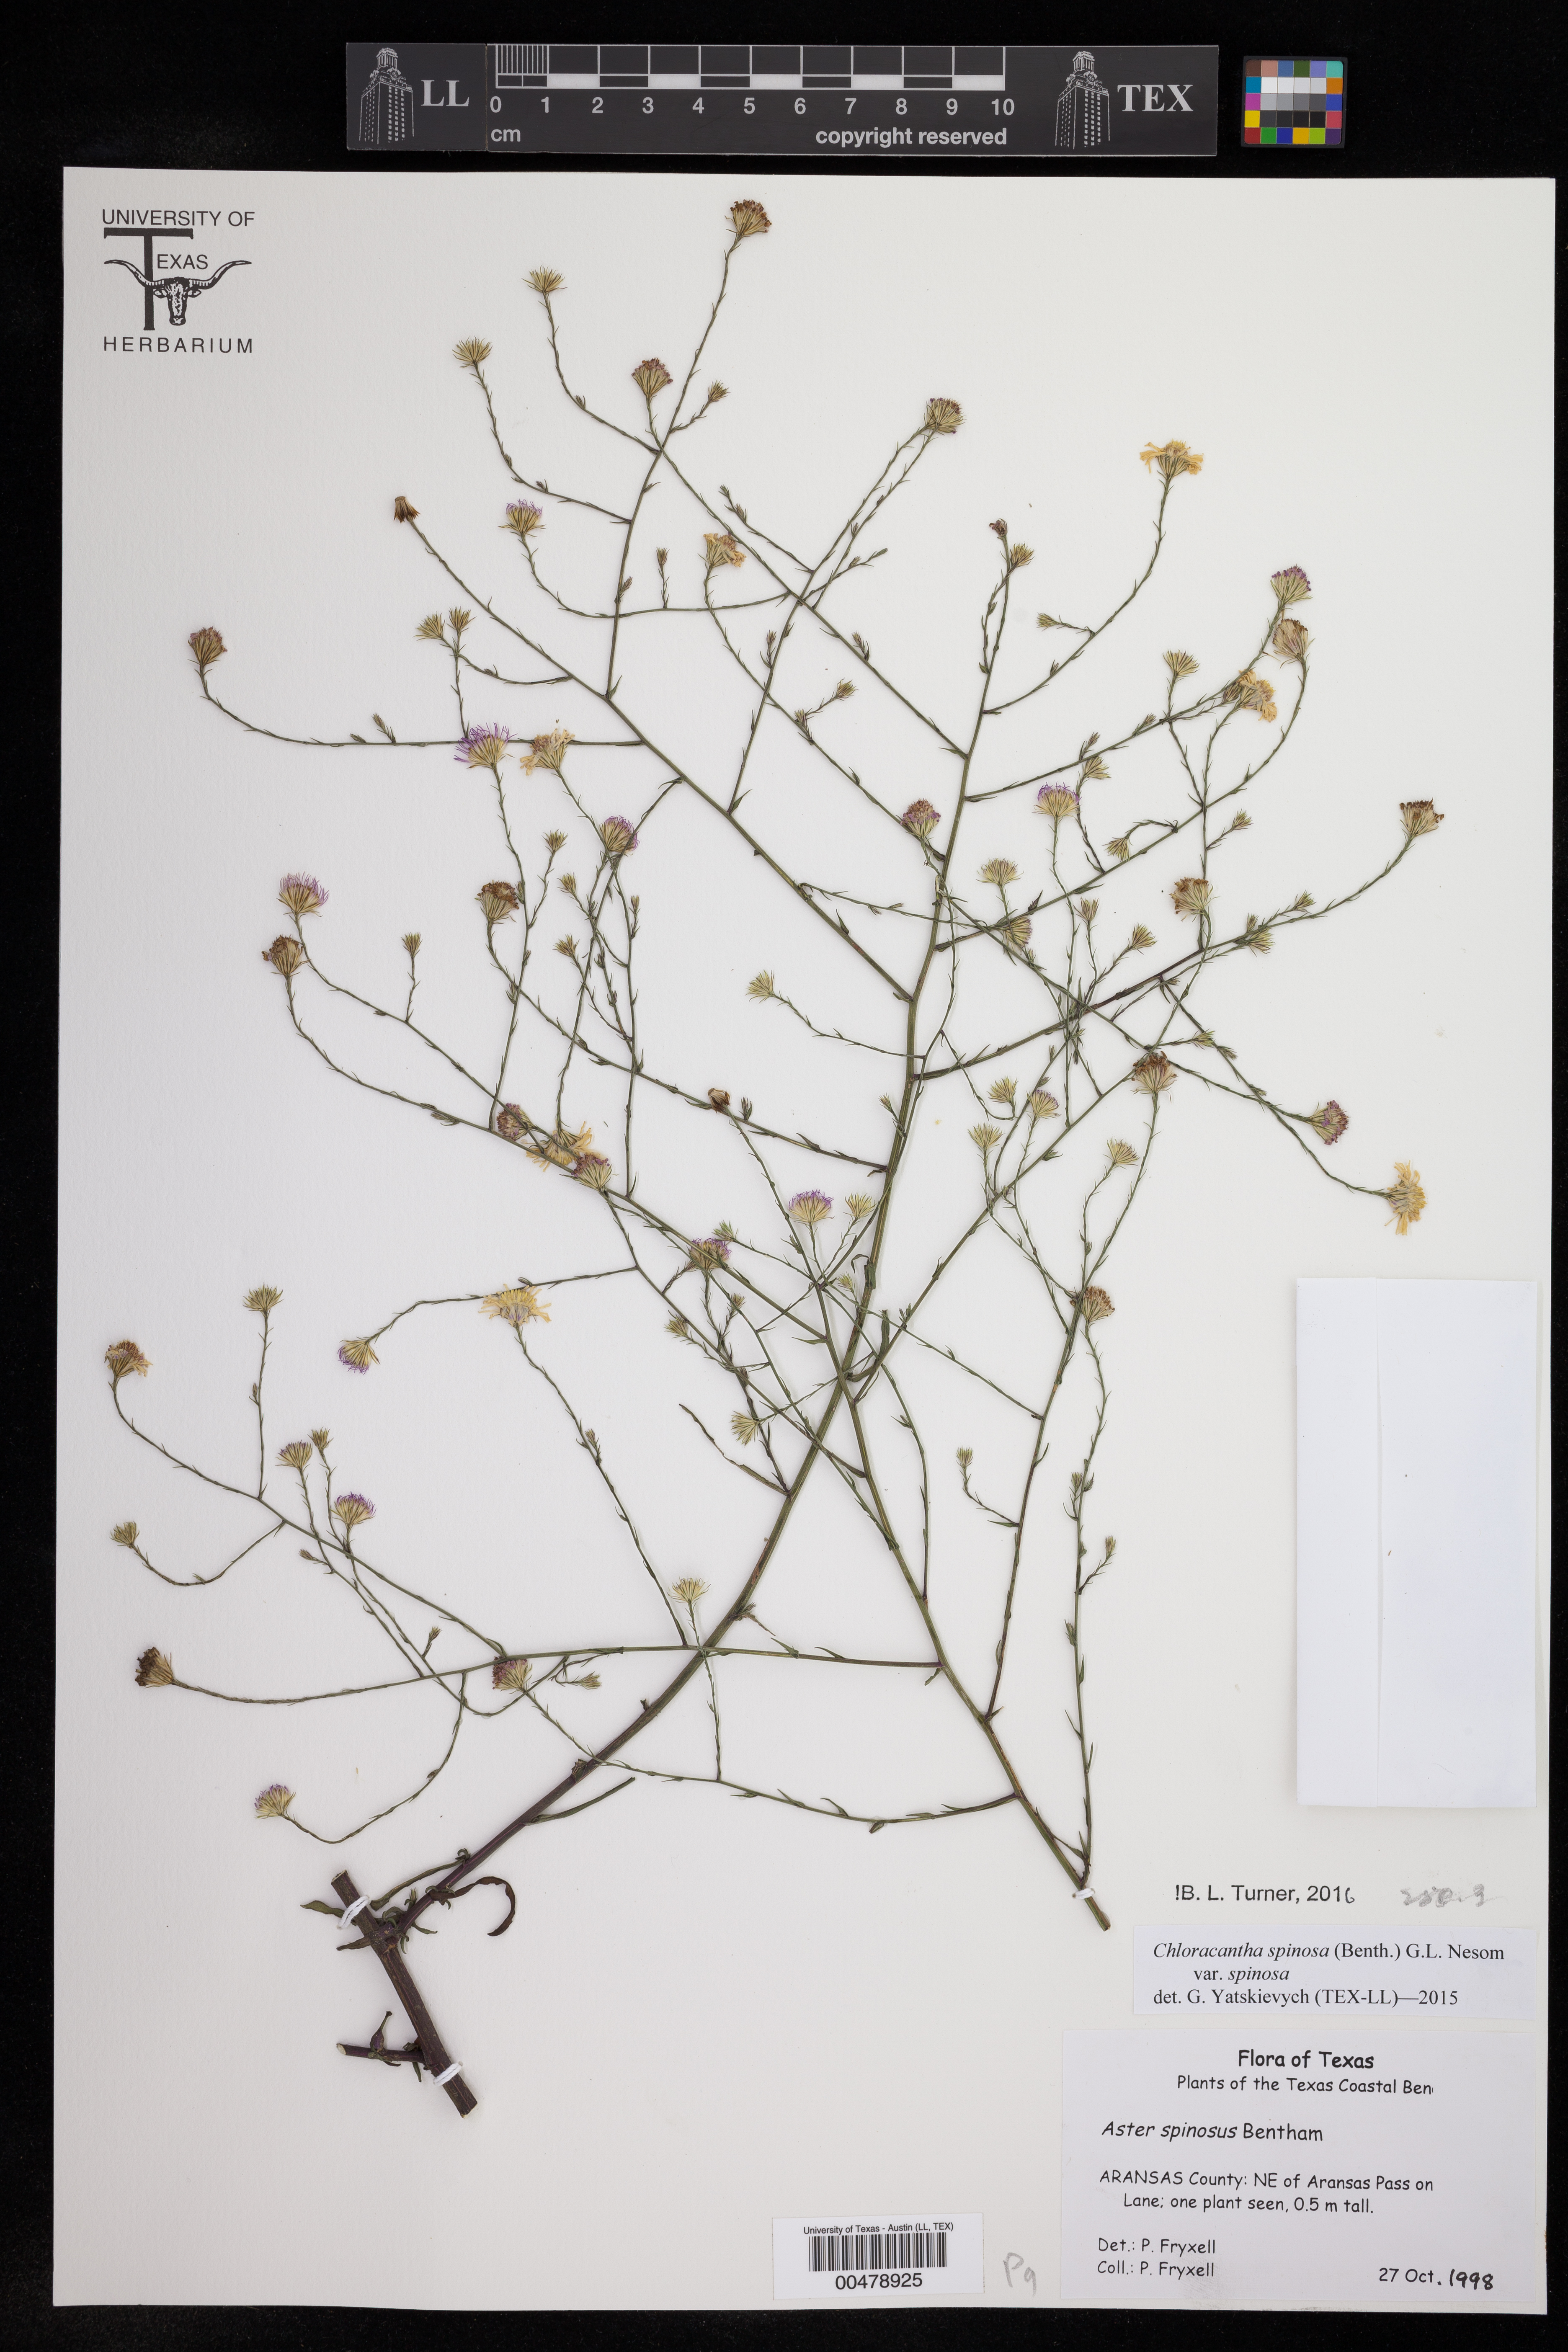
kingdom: Plantae
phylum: Tracheophyta
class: Magnoliopsida
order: Asterales
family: Asteraceae
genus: Chloracantha
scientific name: Chloracantha spinosa
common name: Mexican devilweed
